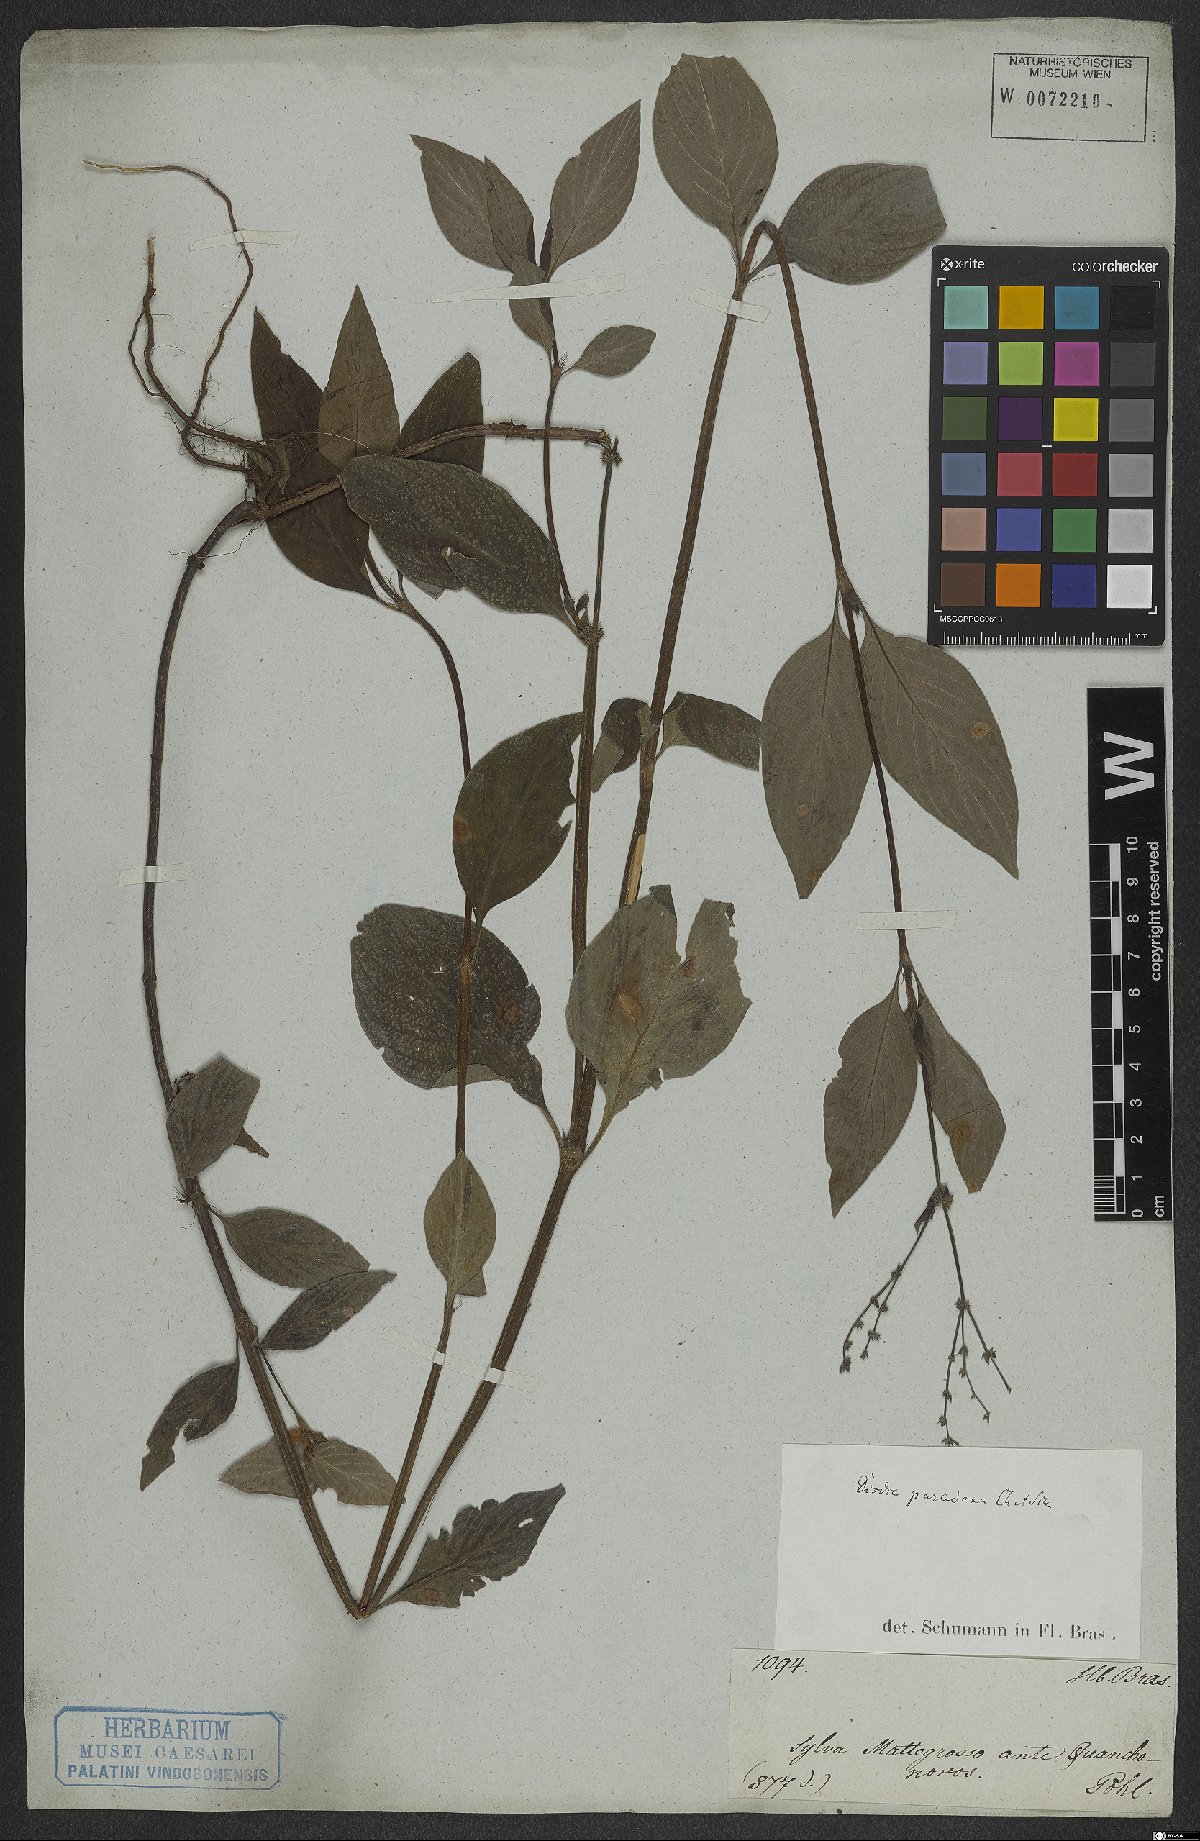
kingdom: Plantae
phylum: Tracheophyta
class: Magnoliopsida
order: Gentianales
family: Rubiaceae
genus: Galianthe
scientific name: Galianthe hispidula
